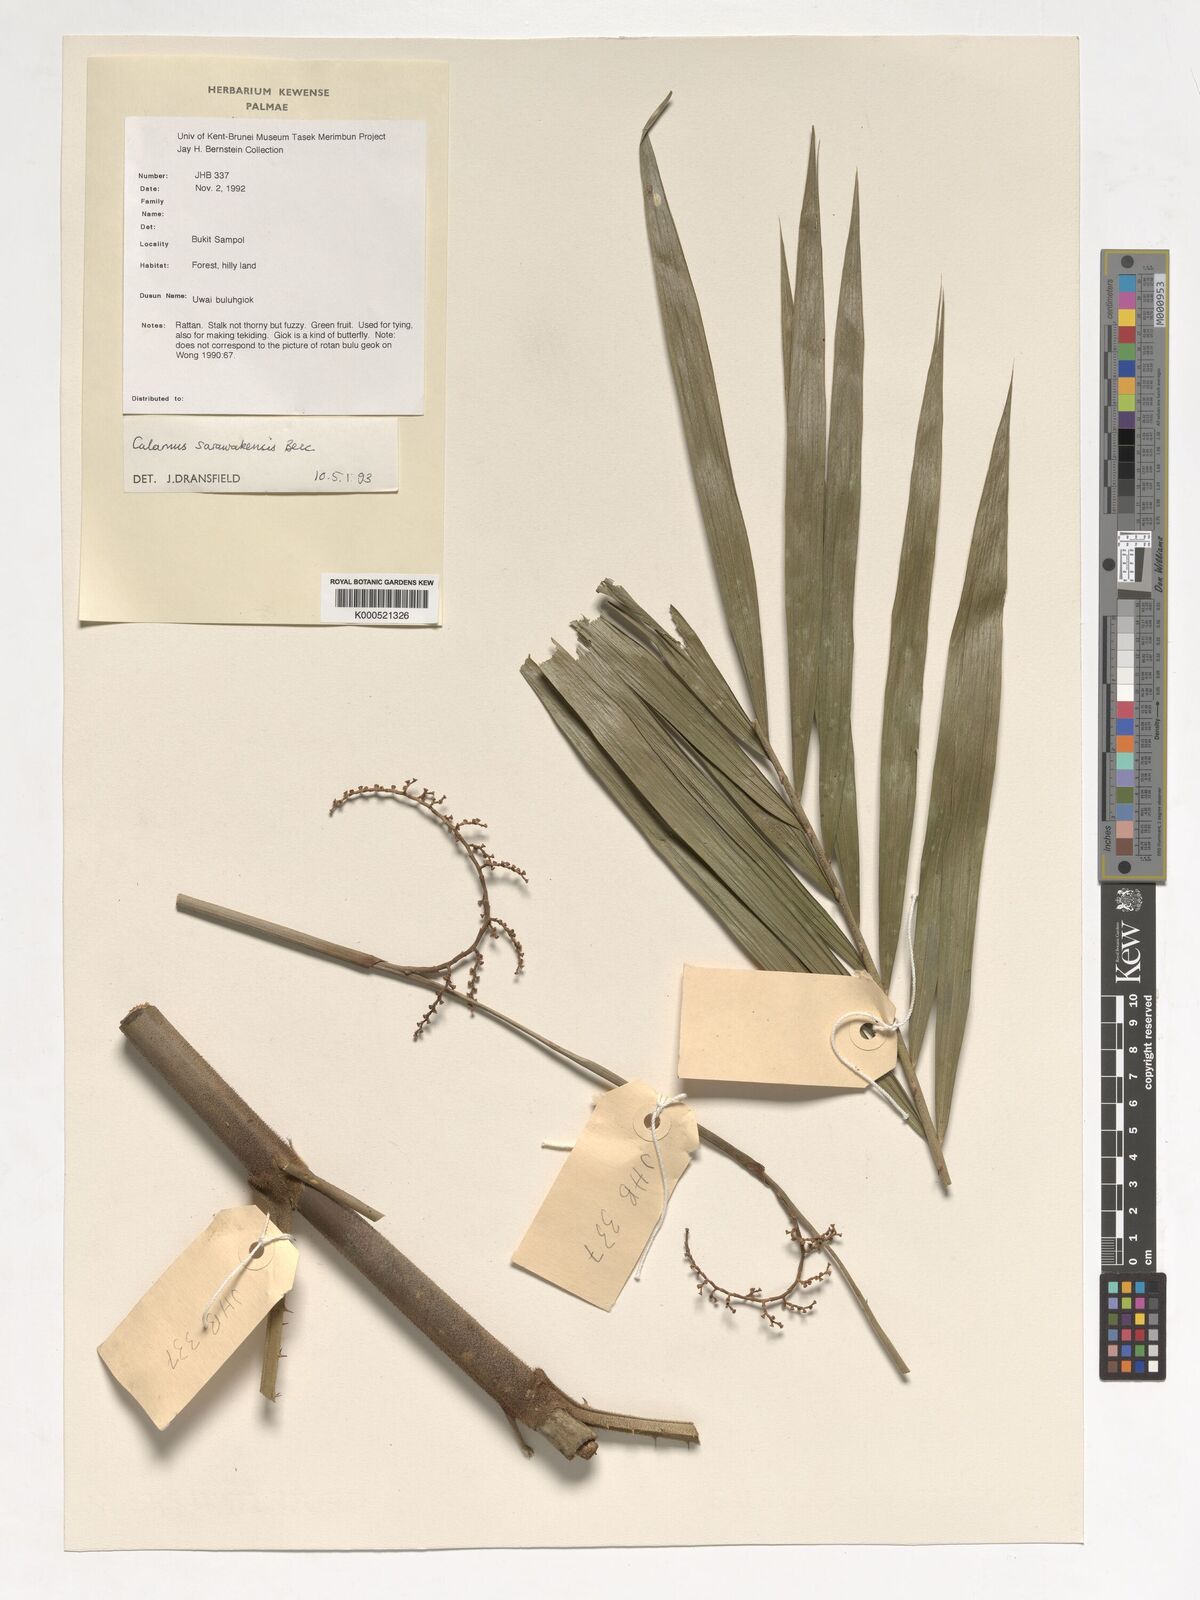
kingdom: Plantae
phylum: Tracheophyta
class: Liliopsida
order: Arecales
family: Arecaceae
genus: Calamus
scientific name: Calamus sarawakensis
